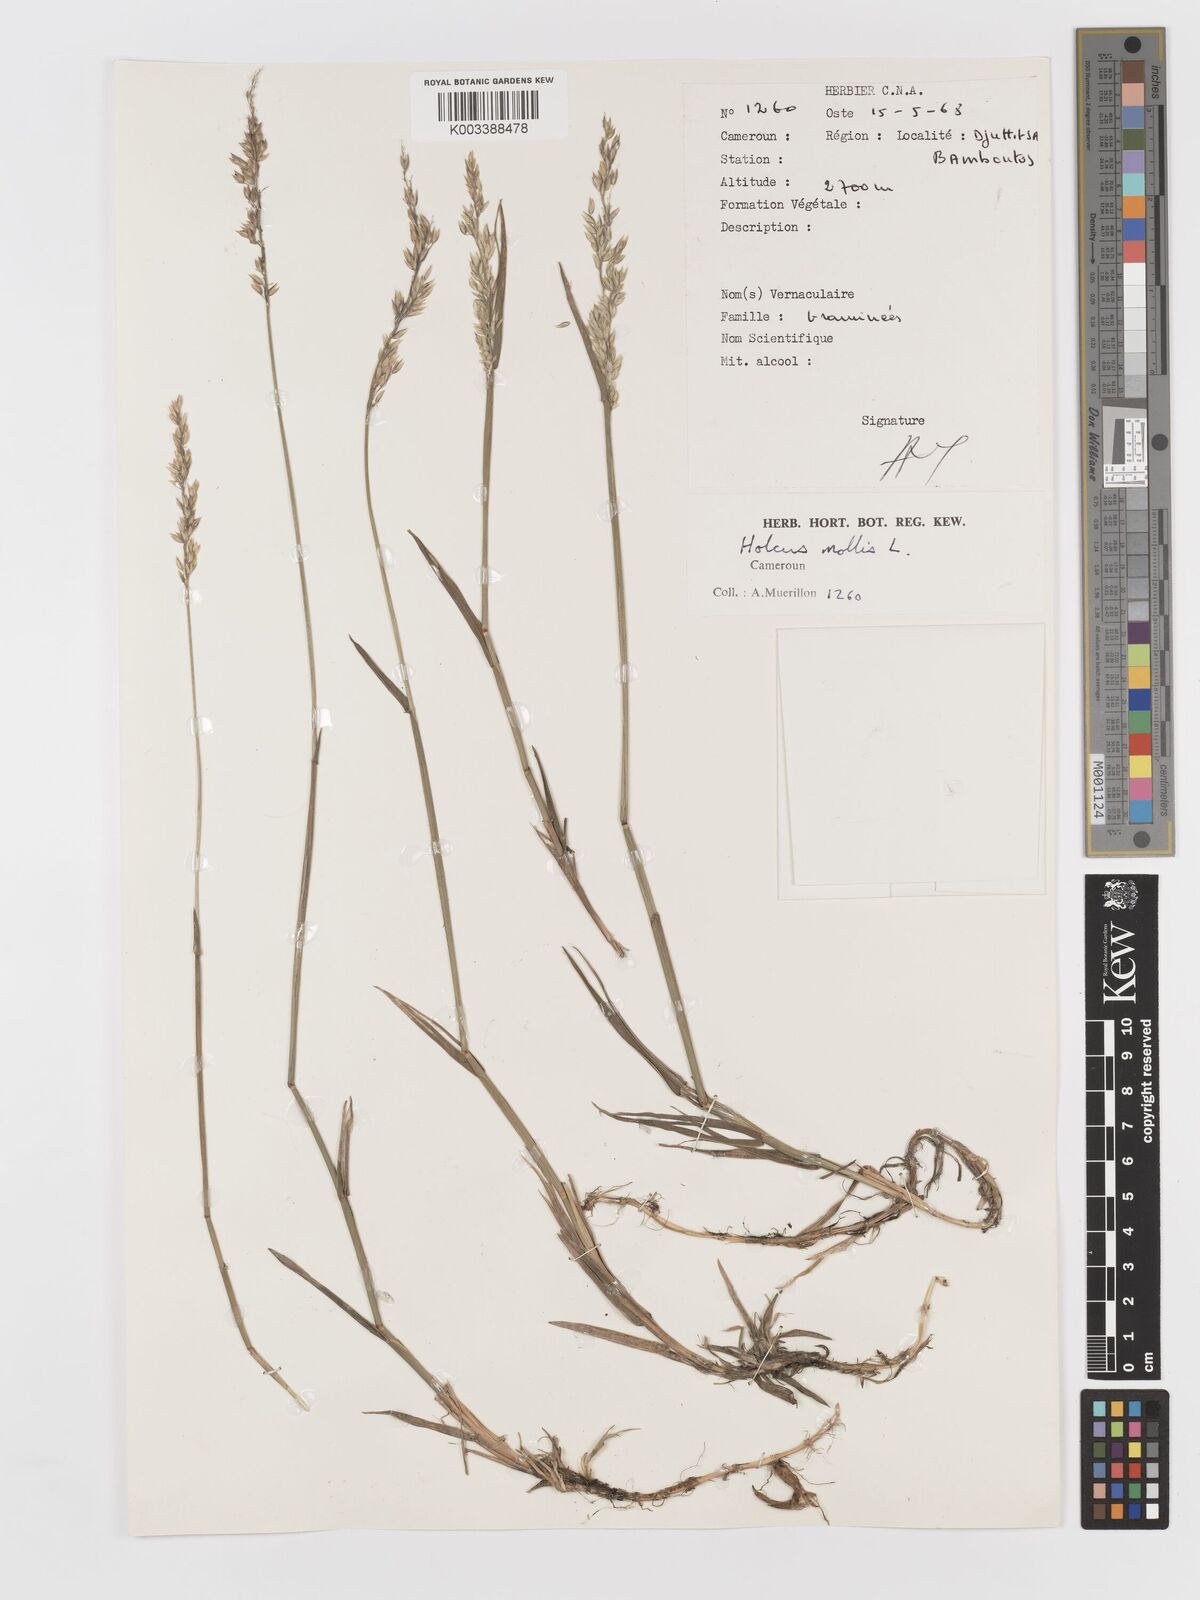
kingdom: Plantae
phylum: Tracheophyta
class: Liliopsida
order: Poales
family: Poaceae
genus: Holcus
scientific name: Holcus mollis
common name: Creeping velvetgrass
